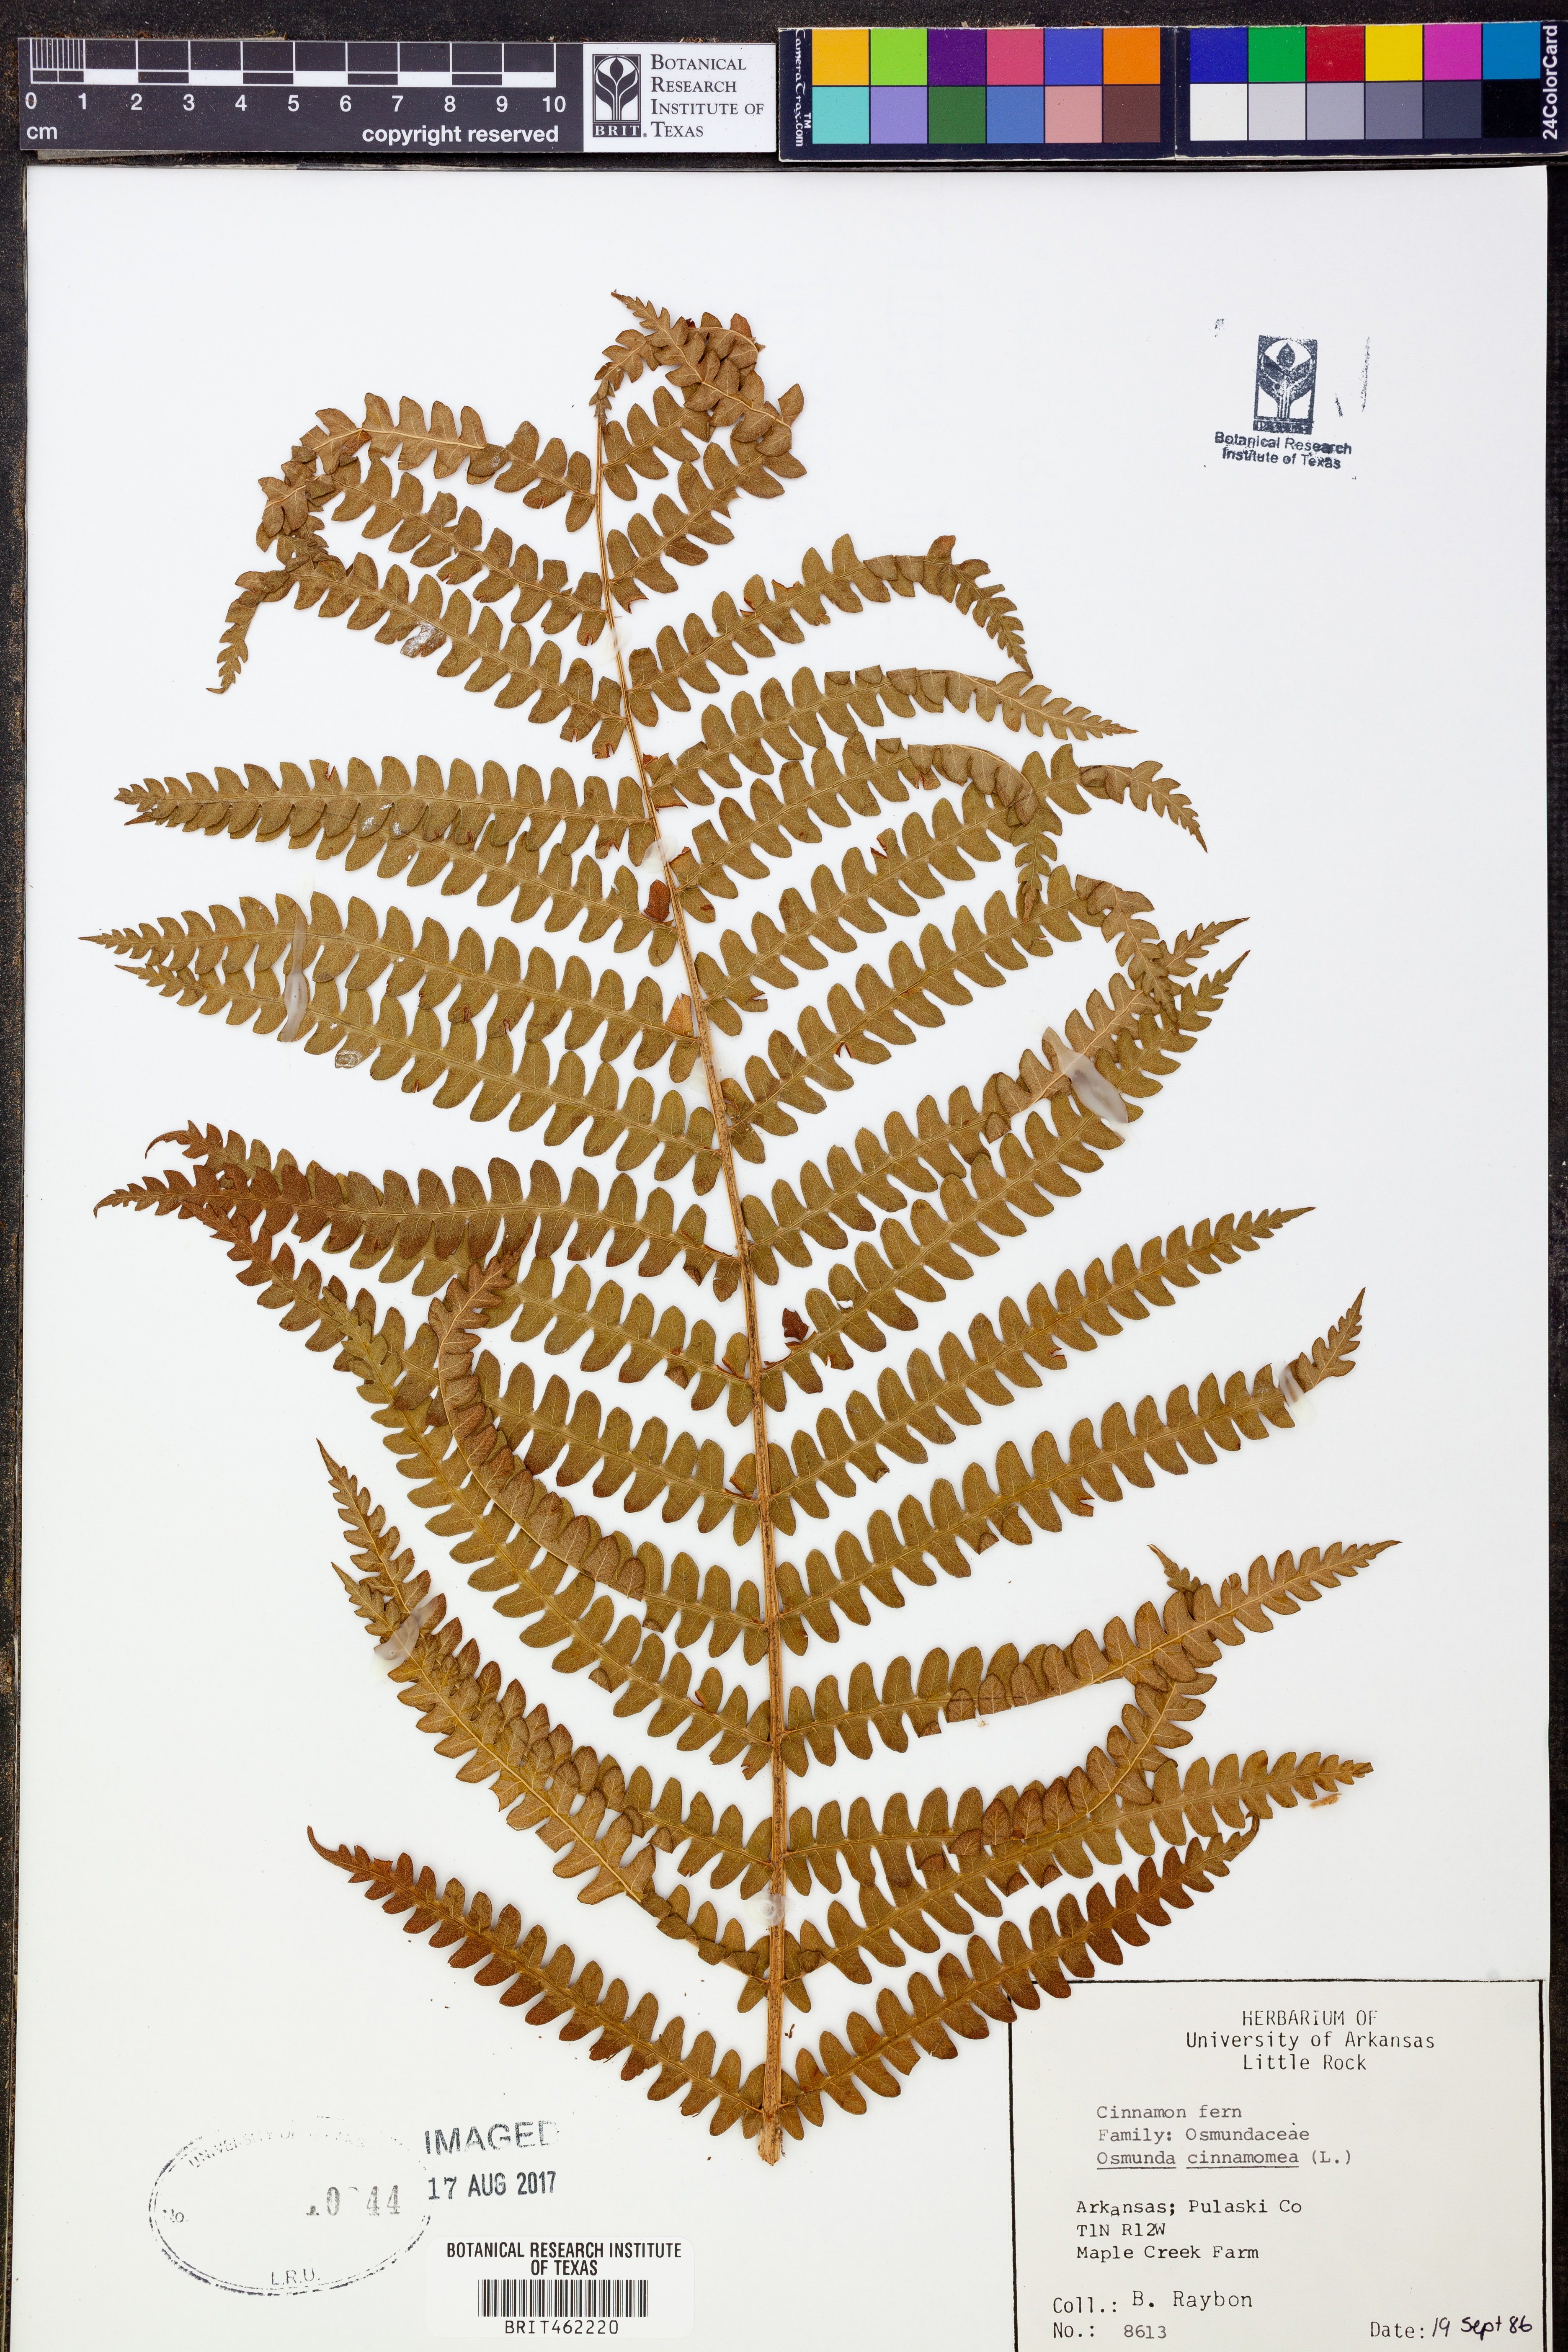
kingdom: Plantae
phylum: Tracheophyta
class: Polypodiopsida
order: Osmundales
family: Osmundaceae
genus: Osmundastrum
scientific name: Osmundastrum cinnamomeum
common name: Cinnamon fern
